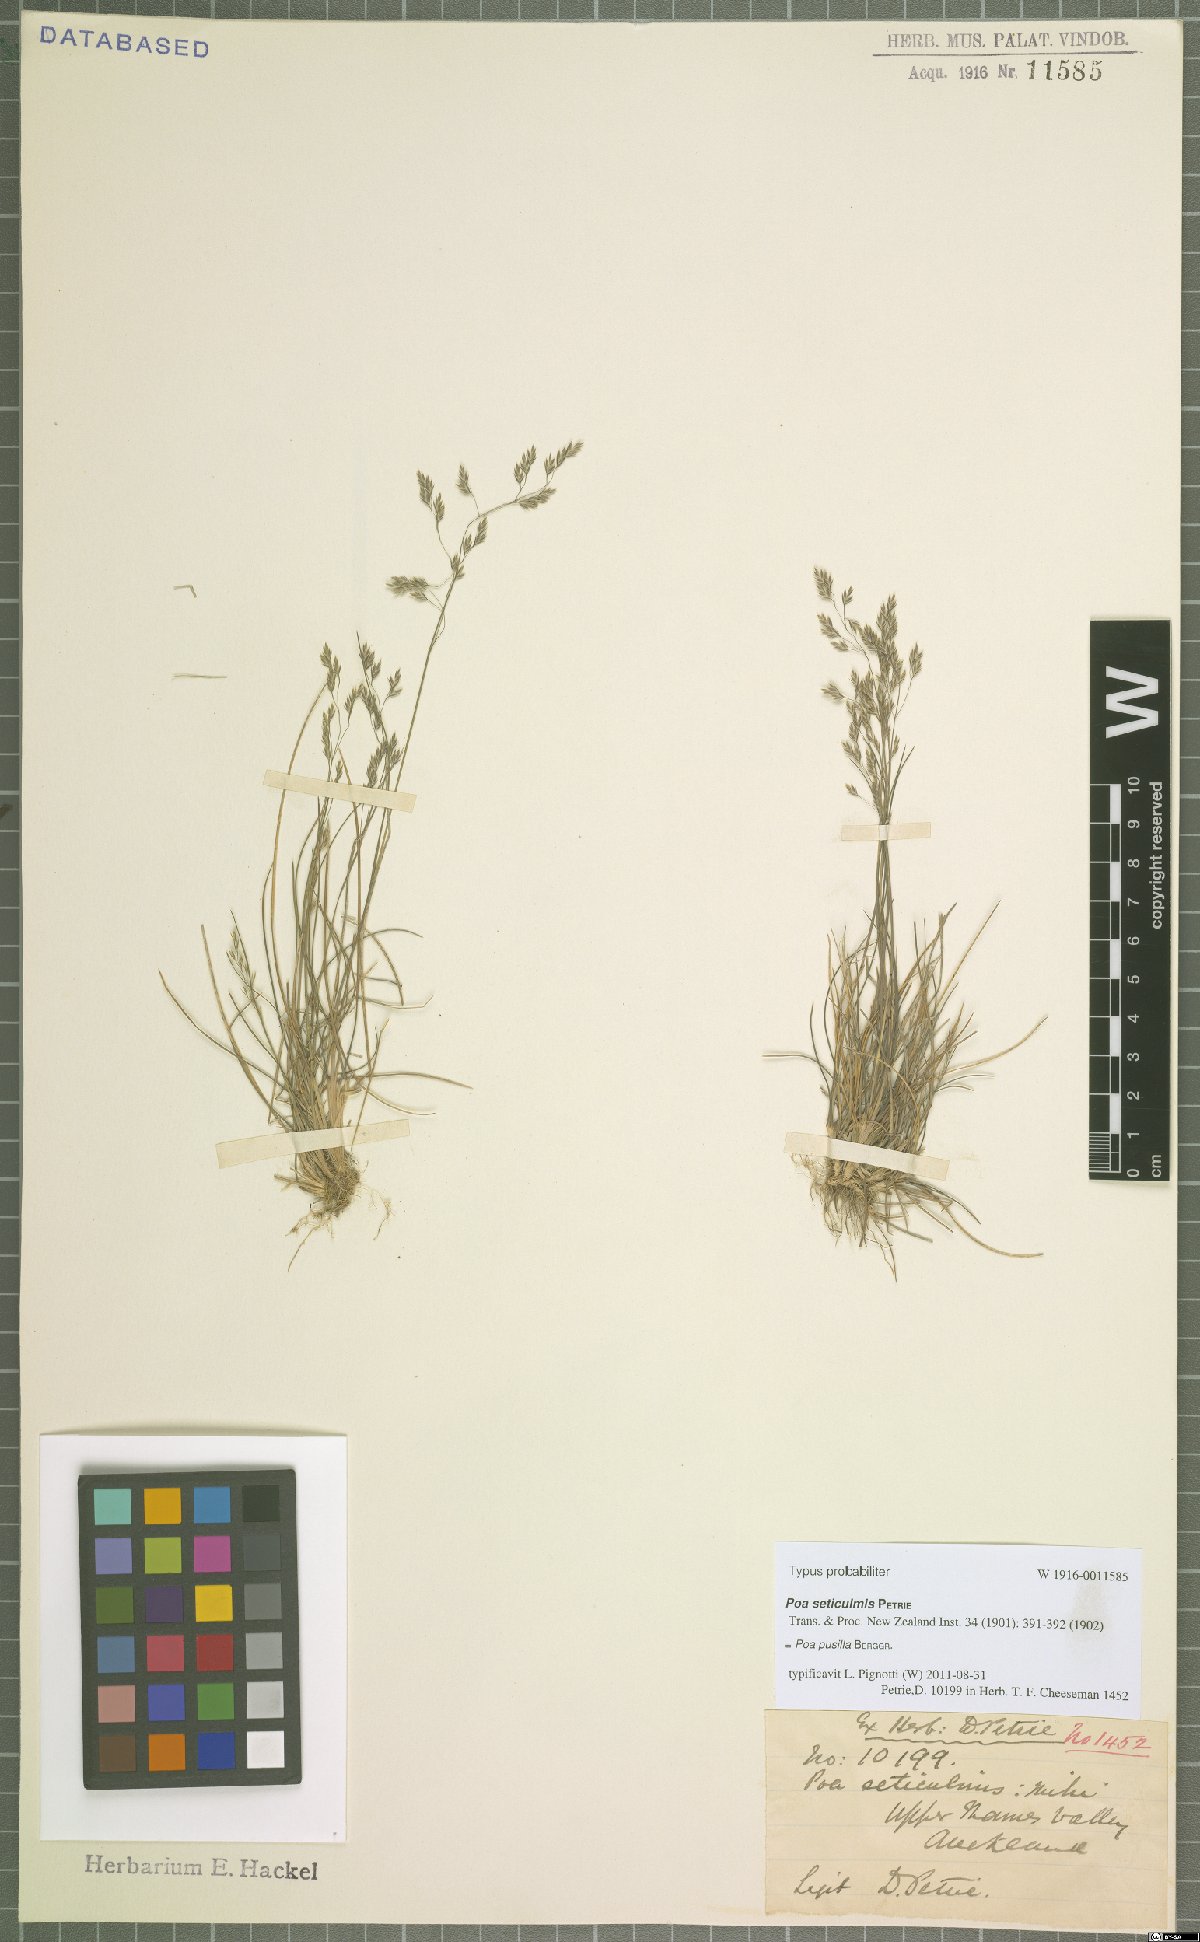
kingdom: Plantae
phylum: Tracheophyta
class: Liliopsida
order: Poales
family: Poaceae
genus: Poa
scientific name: Poa pusilla
